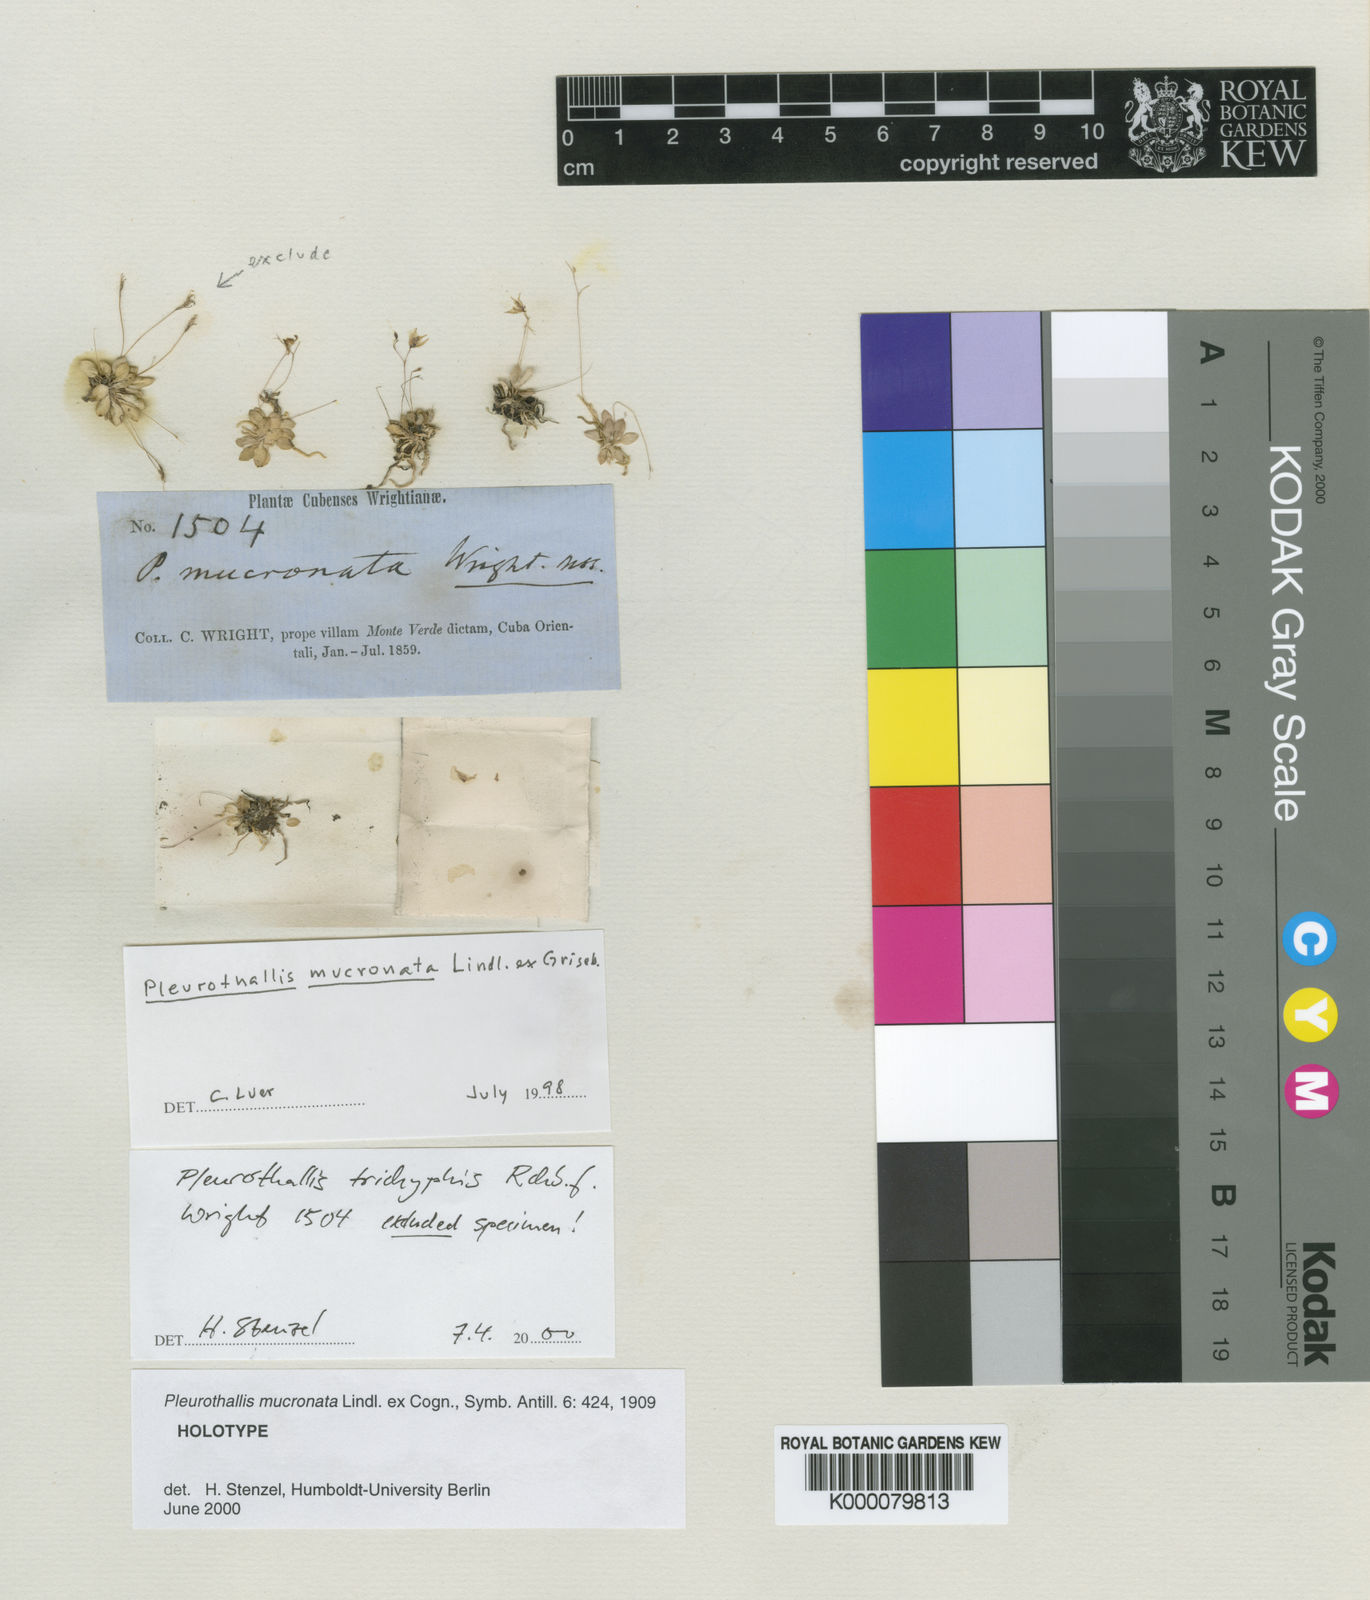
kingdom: Plantae
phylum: Tracheophyta
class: Liliopsida
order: Asparagales
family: Orchidaceae
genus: Muscarella
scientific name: Muscarella mucronata
